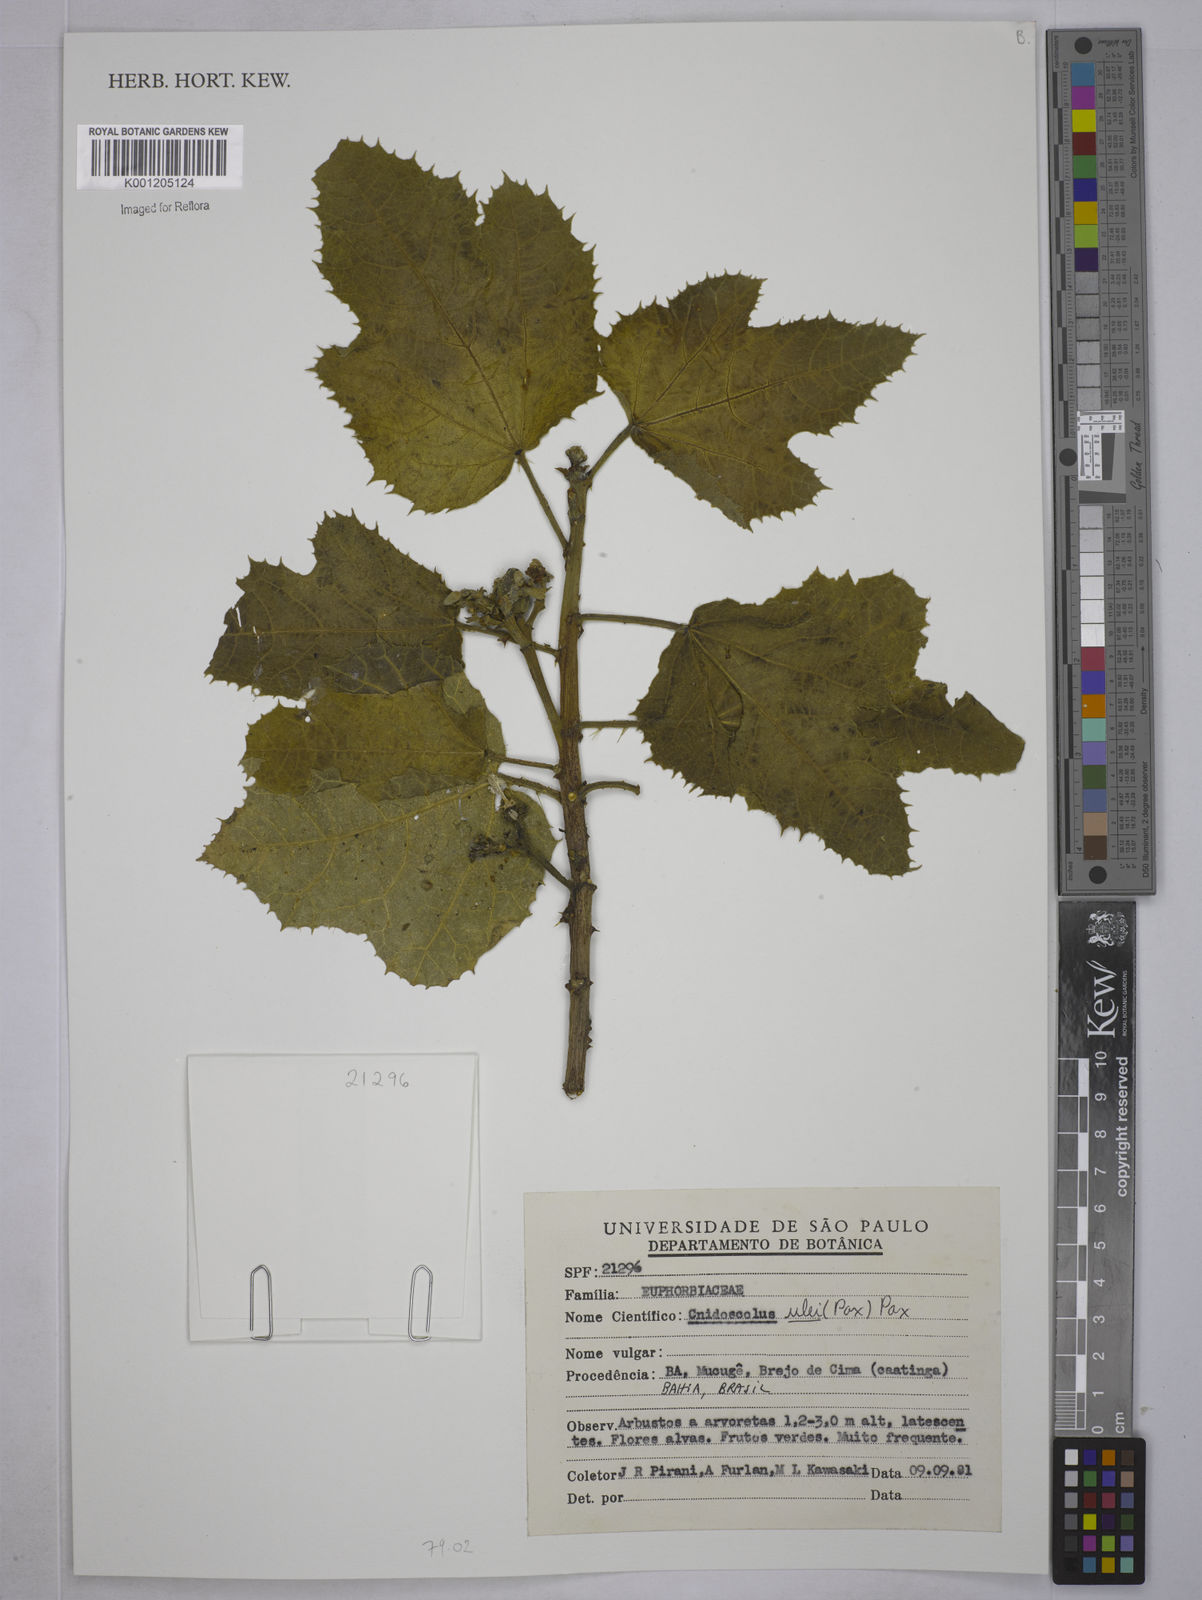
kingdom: Plantae
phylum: Tracheophyta
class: Magnoliopsida
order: Malpighiales
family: Euphorbiaceae
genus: Cnidoscolus
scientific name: Cnidoscolus ulei
